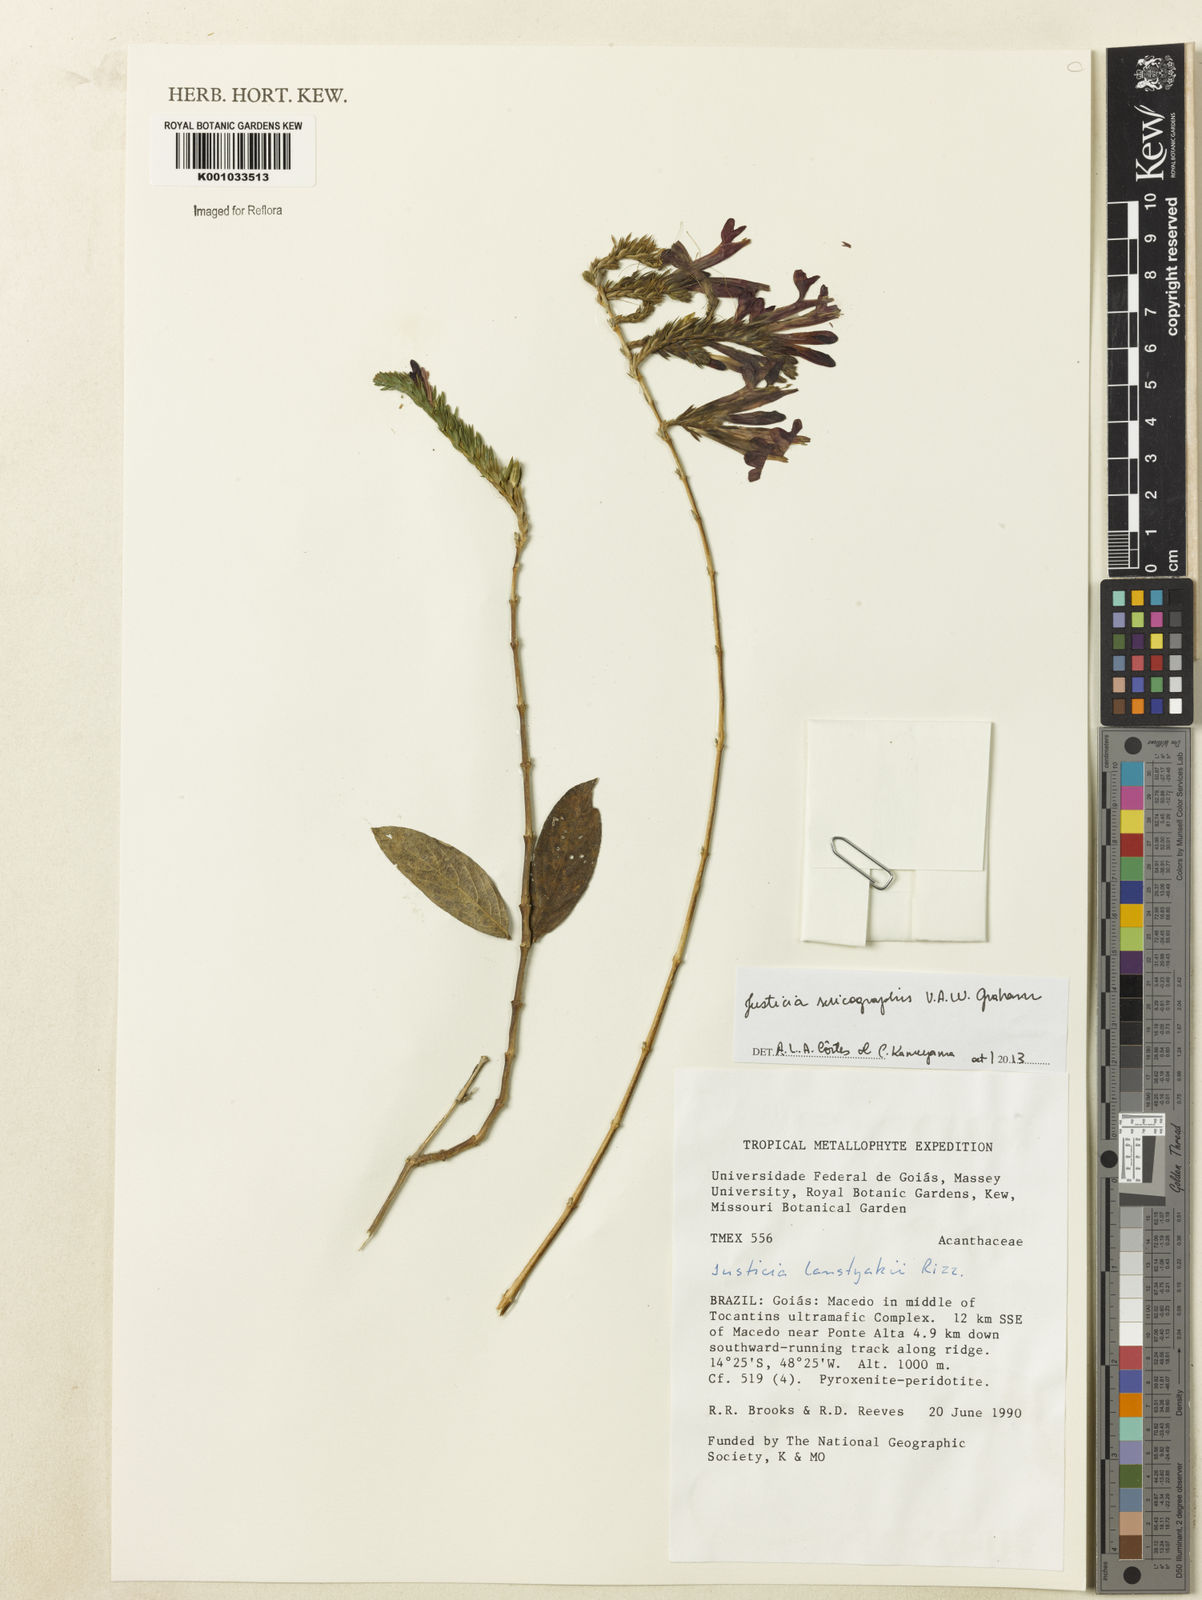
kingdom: Plantae
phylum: Tracheophyta
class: Magnoliopsida
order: Lamiales
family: Acanthaceae
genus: Dianthera
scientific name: Dianthera rigida
